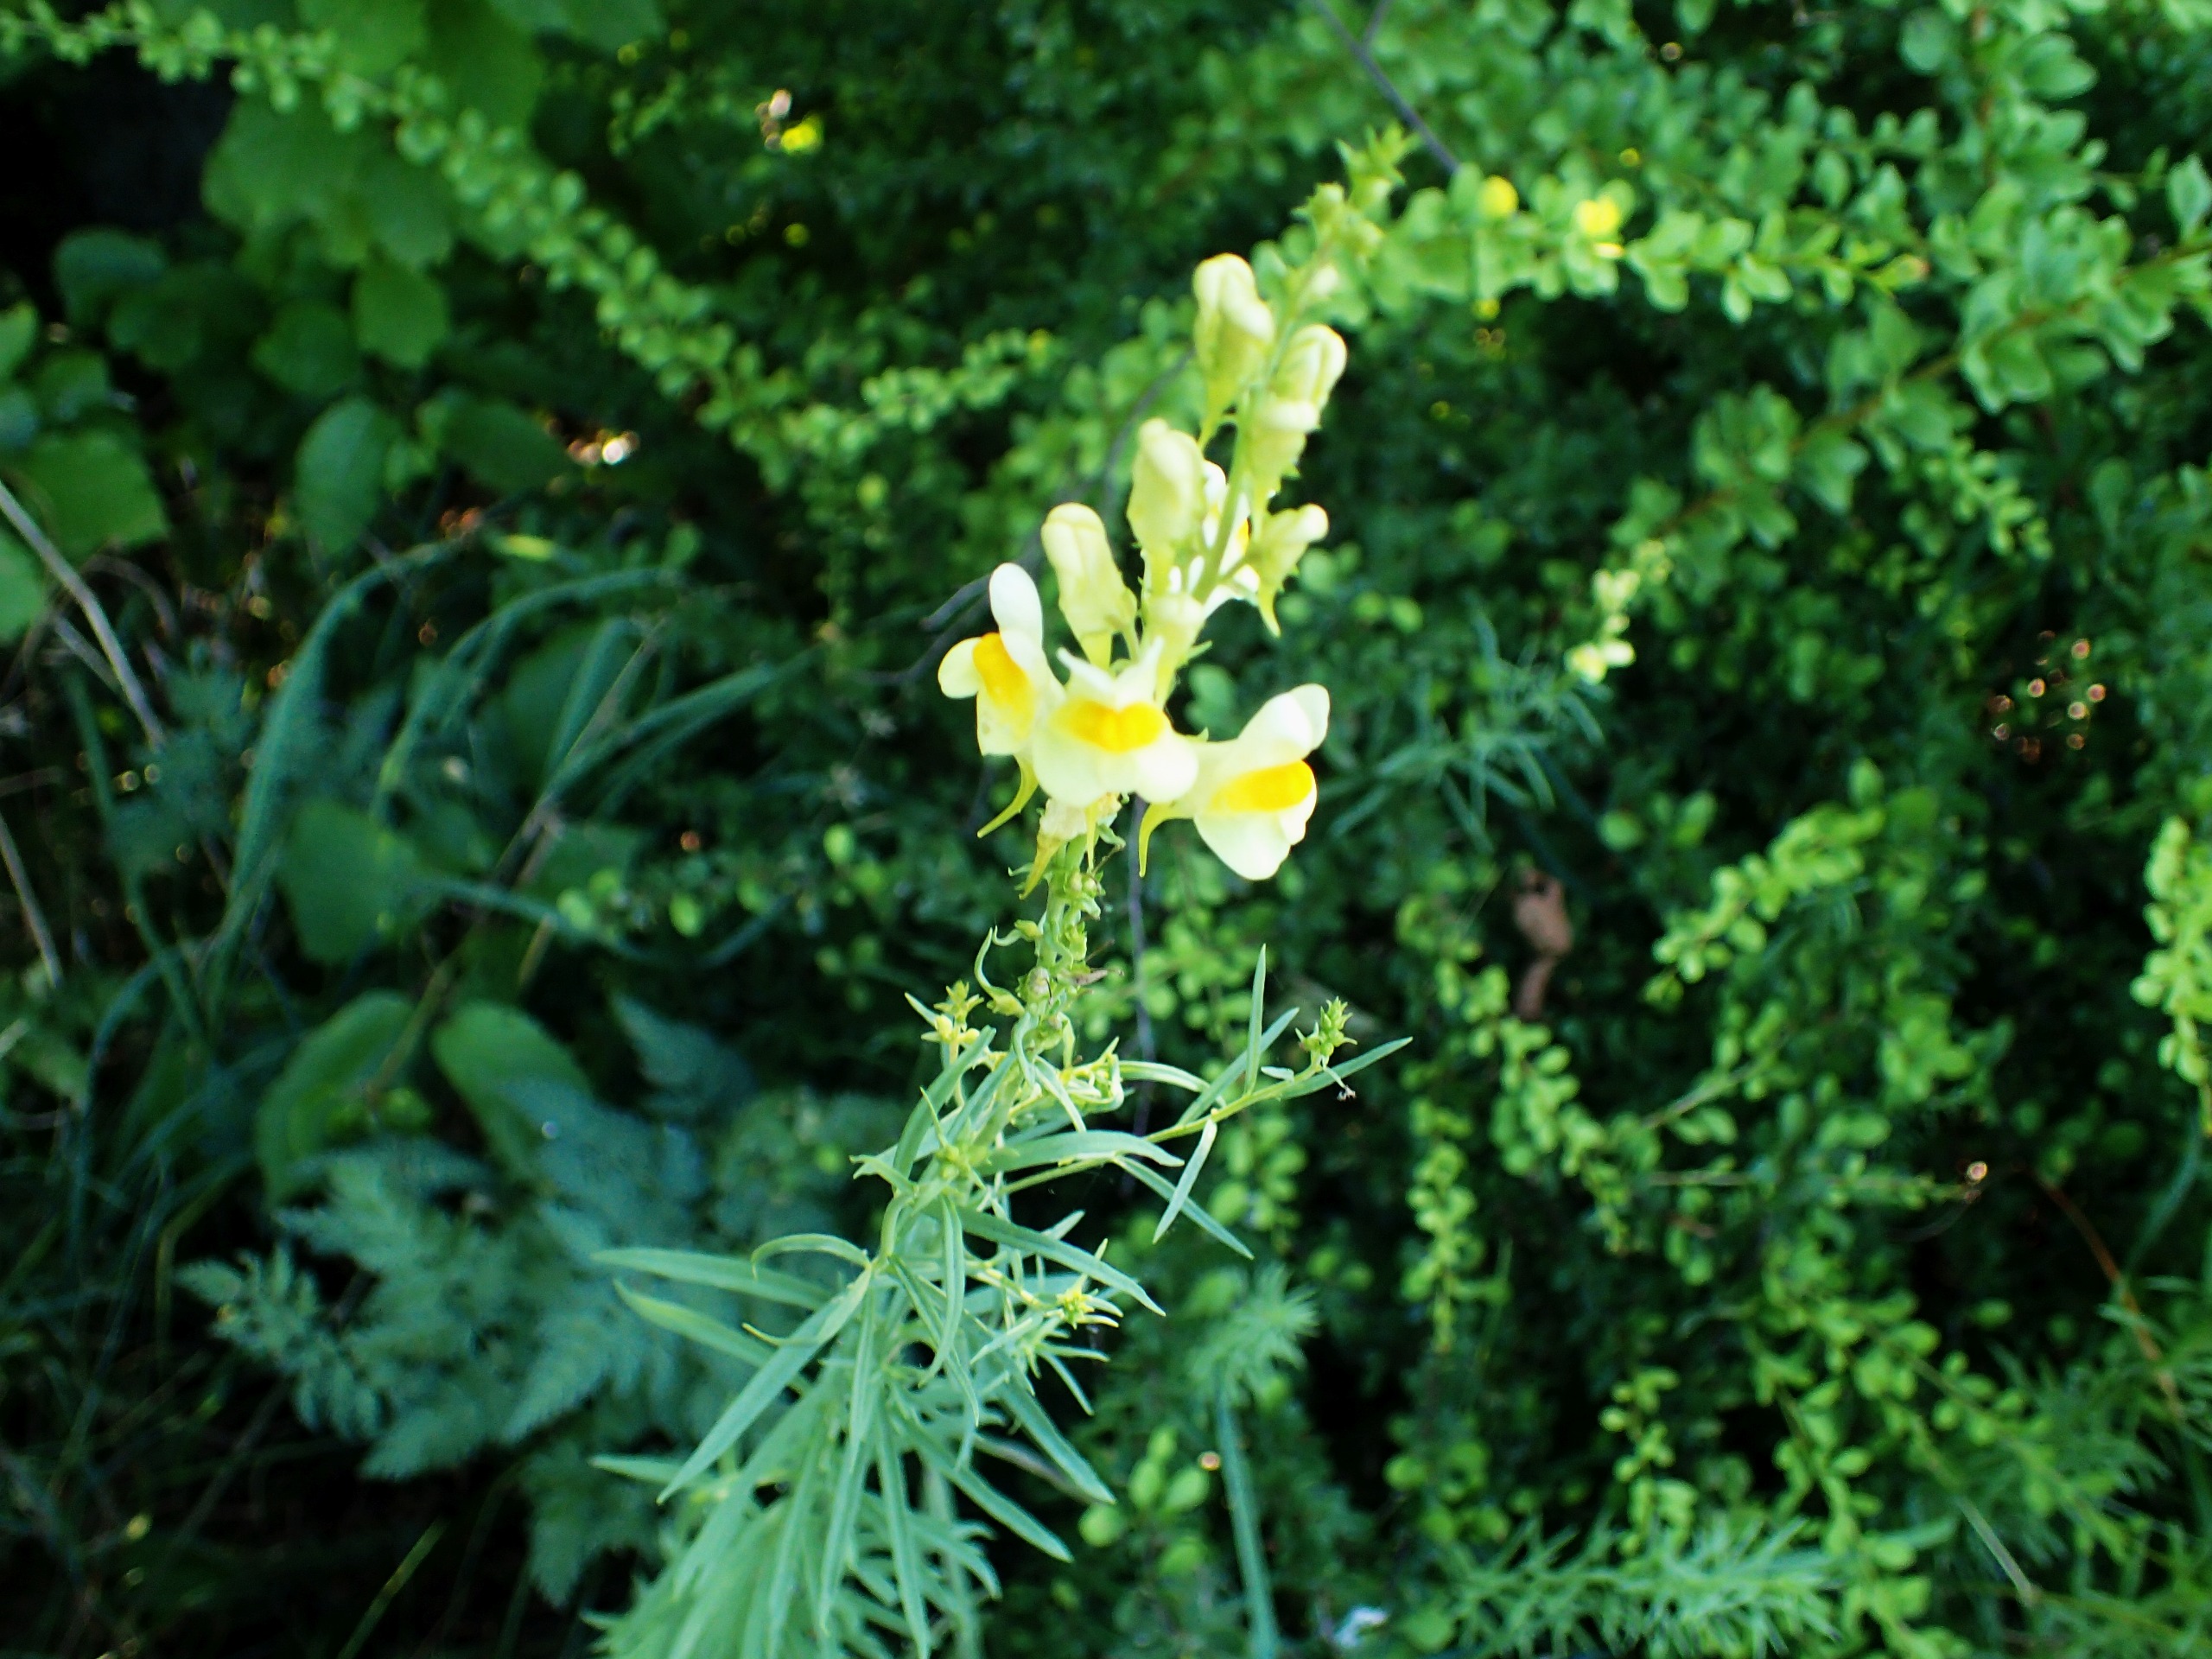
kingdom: Plantae
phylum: Tracheophyta
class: Magnoliopsida
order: Lamiales
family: Plantaginaceae
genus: Linaria
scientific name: Linaria vulgaris
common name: Almindelig torskemund
